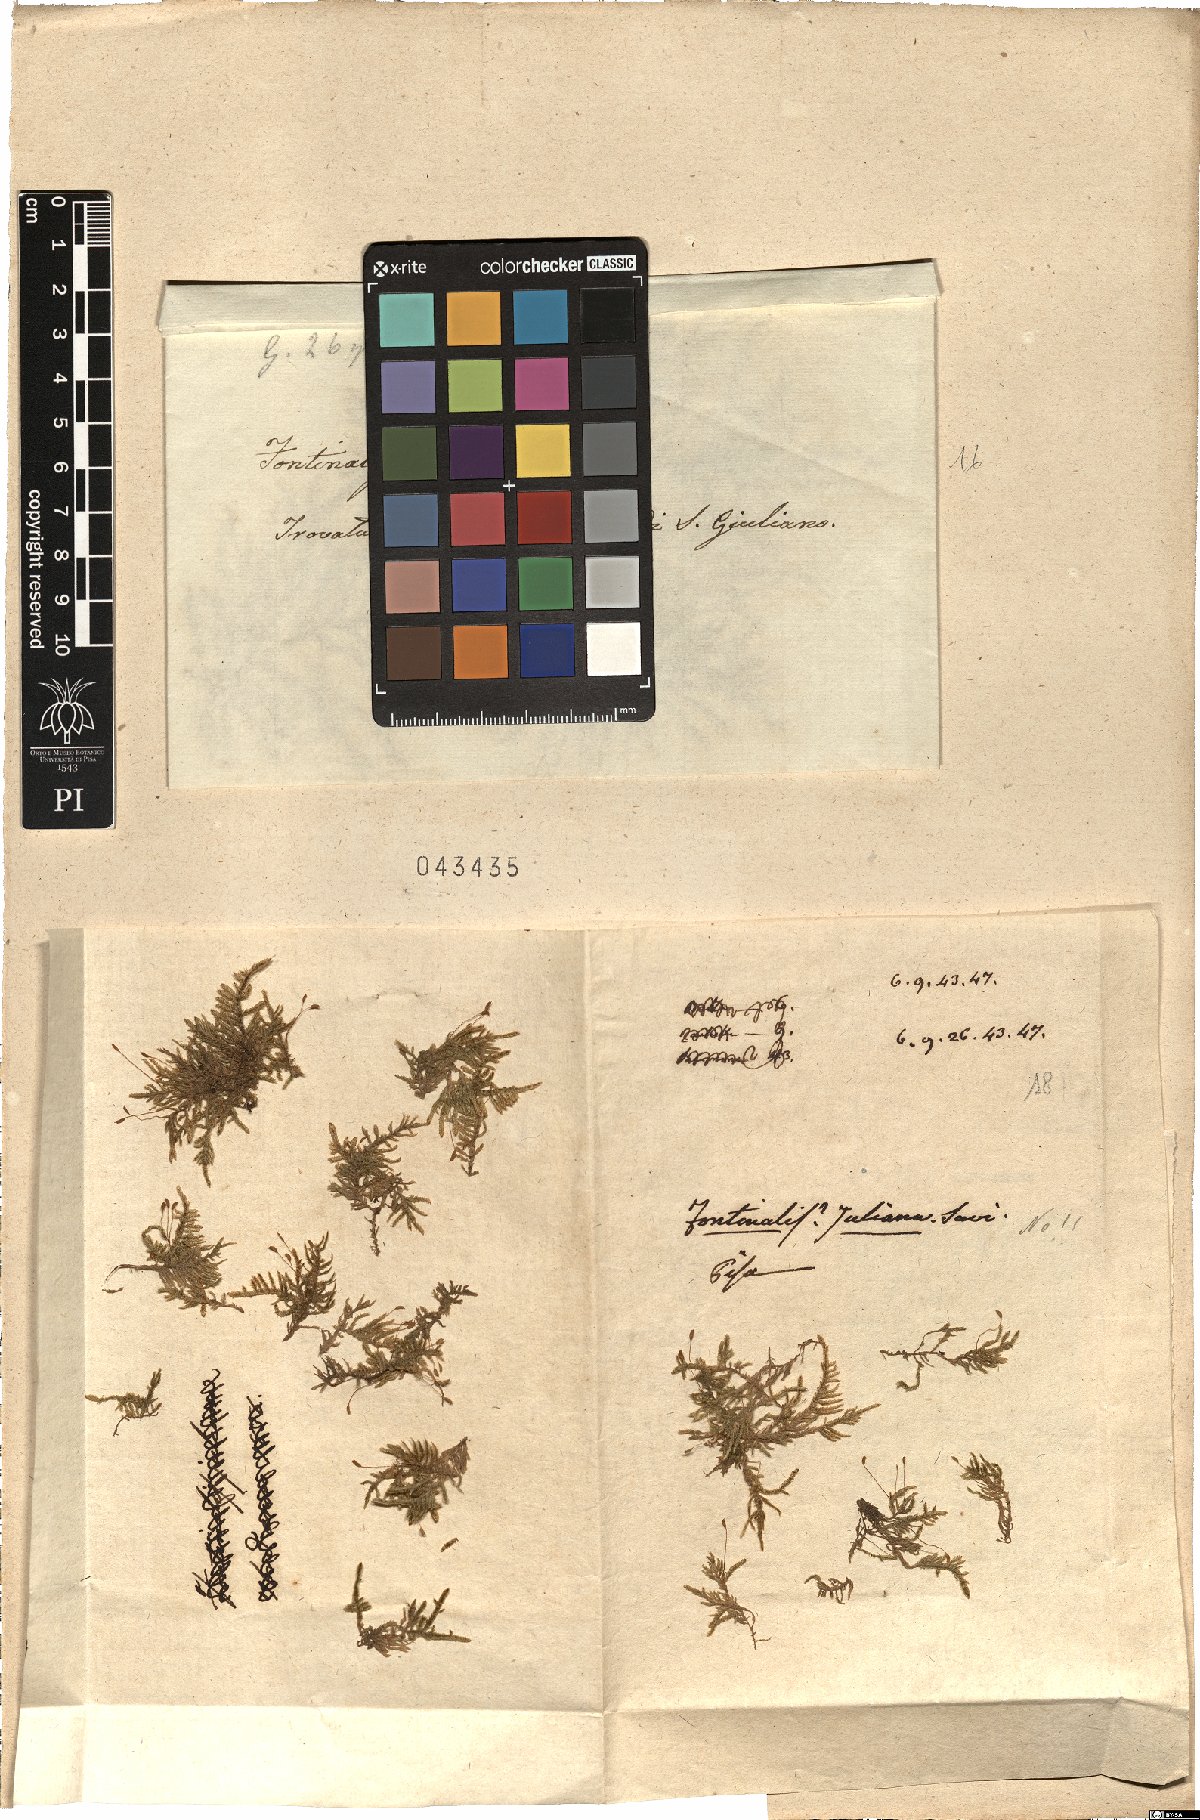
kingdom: Plantae
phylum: Bryophyta
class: Bryopsida
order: Dicranales
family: Fissidentaceae
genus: Fissidens
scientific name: Fissidens fontanus
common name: Fountain pocket-moss
